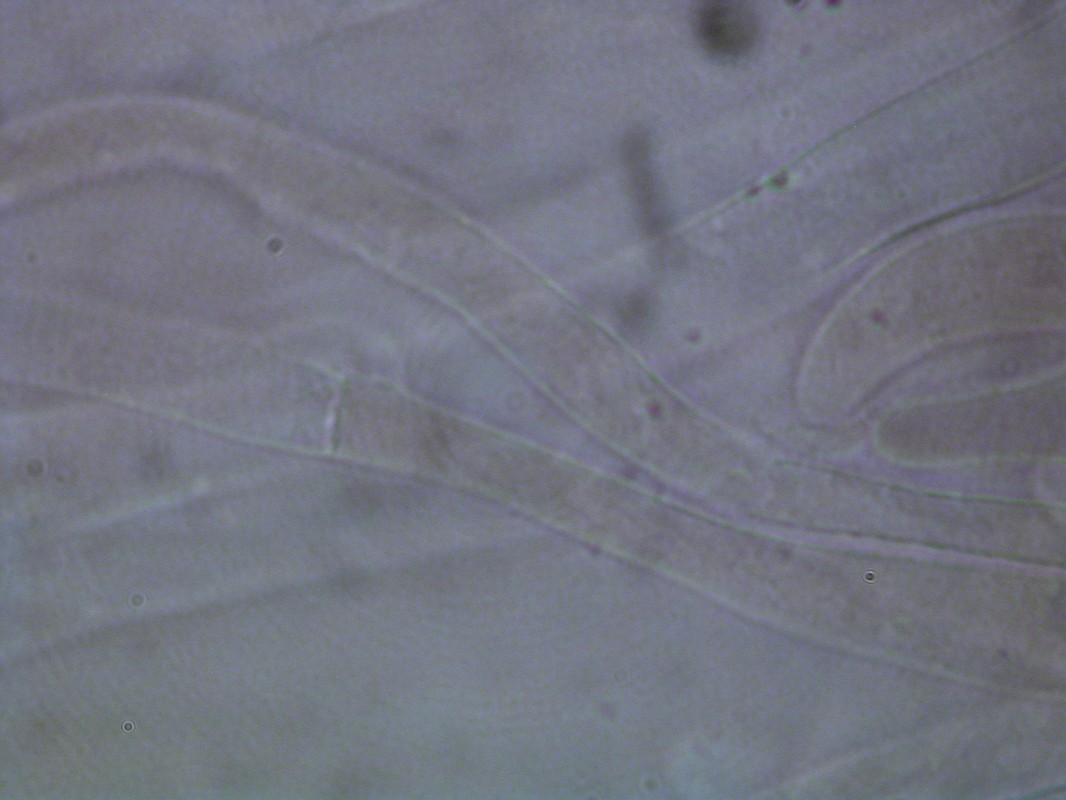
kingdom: Fungi
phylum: Basidiomycota
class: Agaricomycetes
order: Agaricales
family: Cortinariaceae
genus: Cortinarius
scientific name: Cortinarius sanguineus
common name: blodrød slørhat
